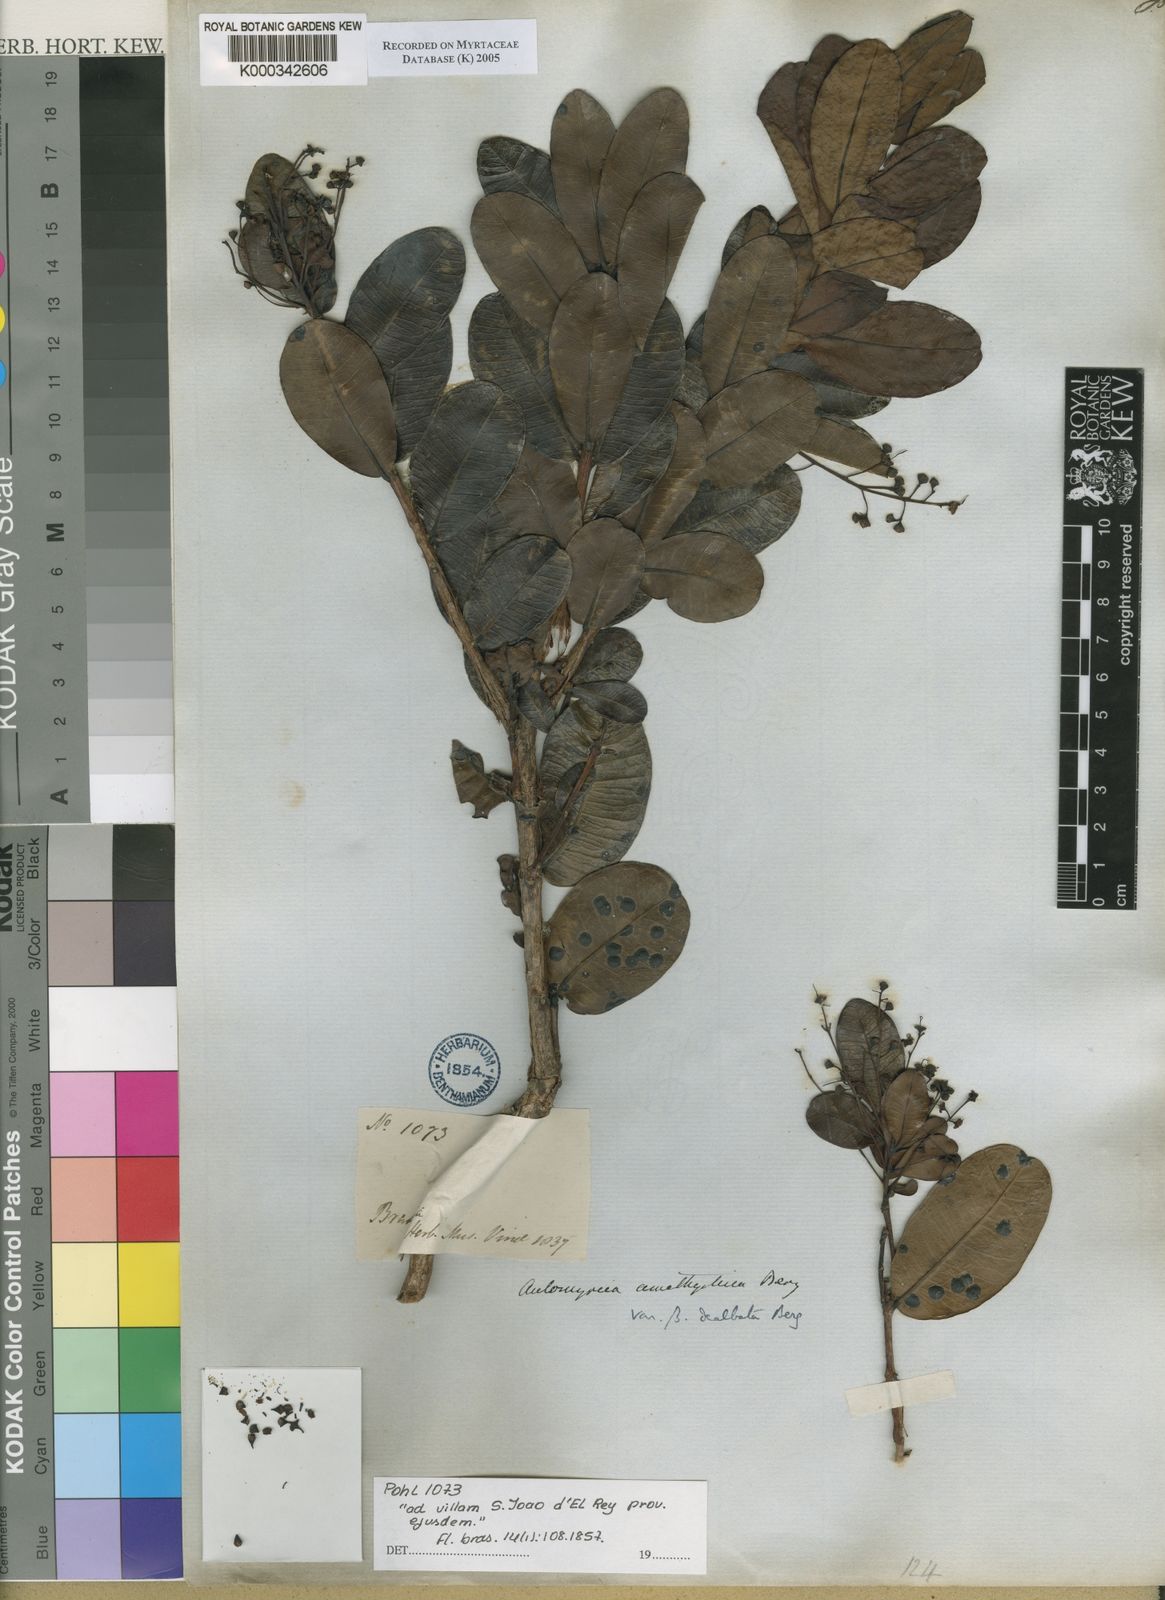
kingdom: Plantae
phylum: Tracheophyta
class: Magnoliopsida
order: Myrtales
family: Myrtaceae
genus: Myrcia
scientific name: Myrcia amethystina
